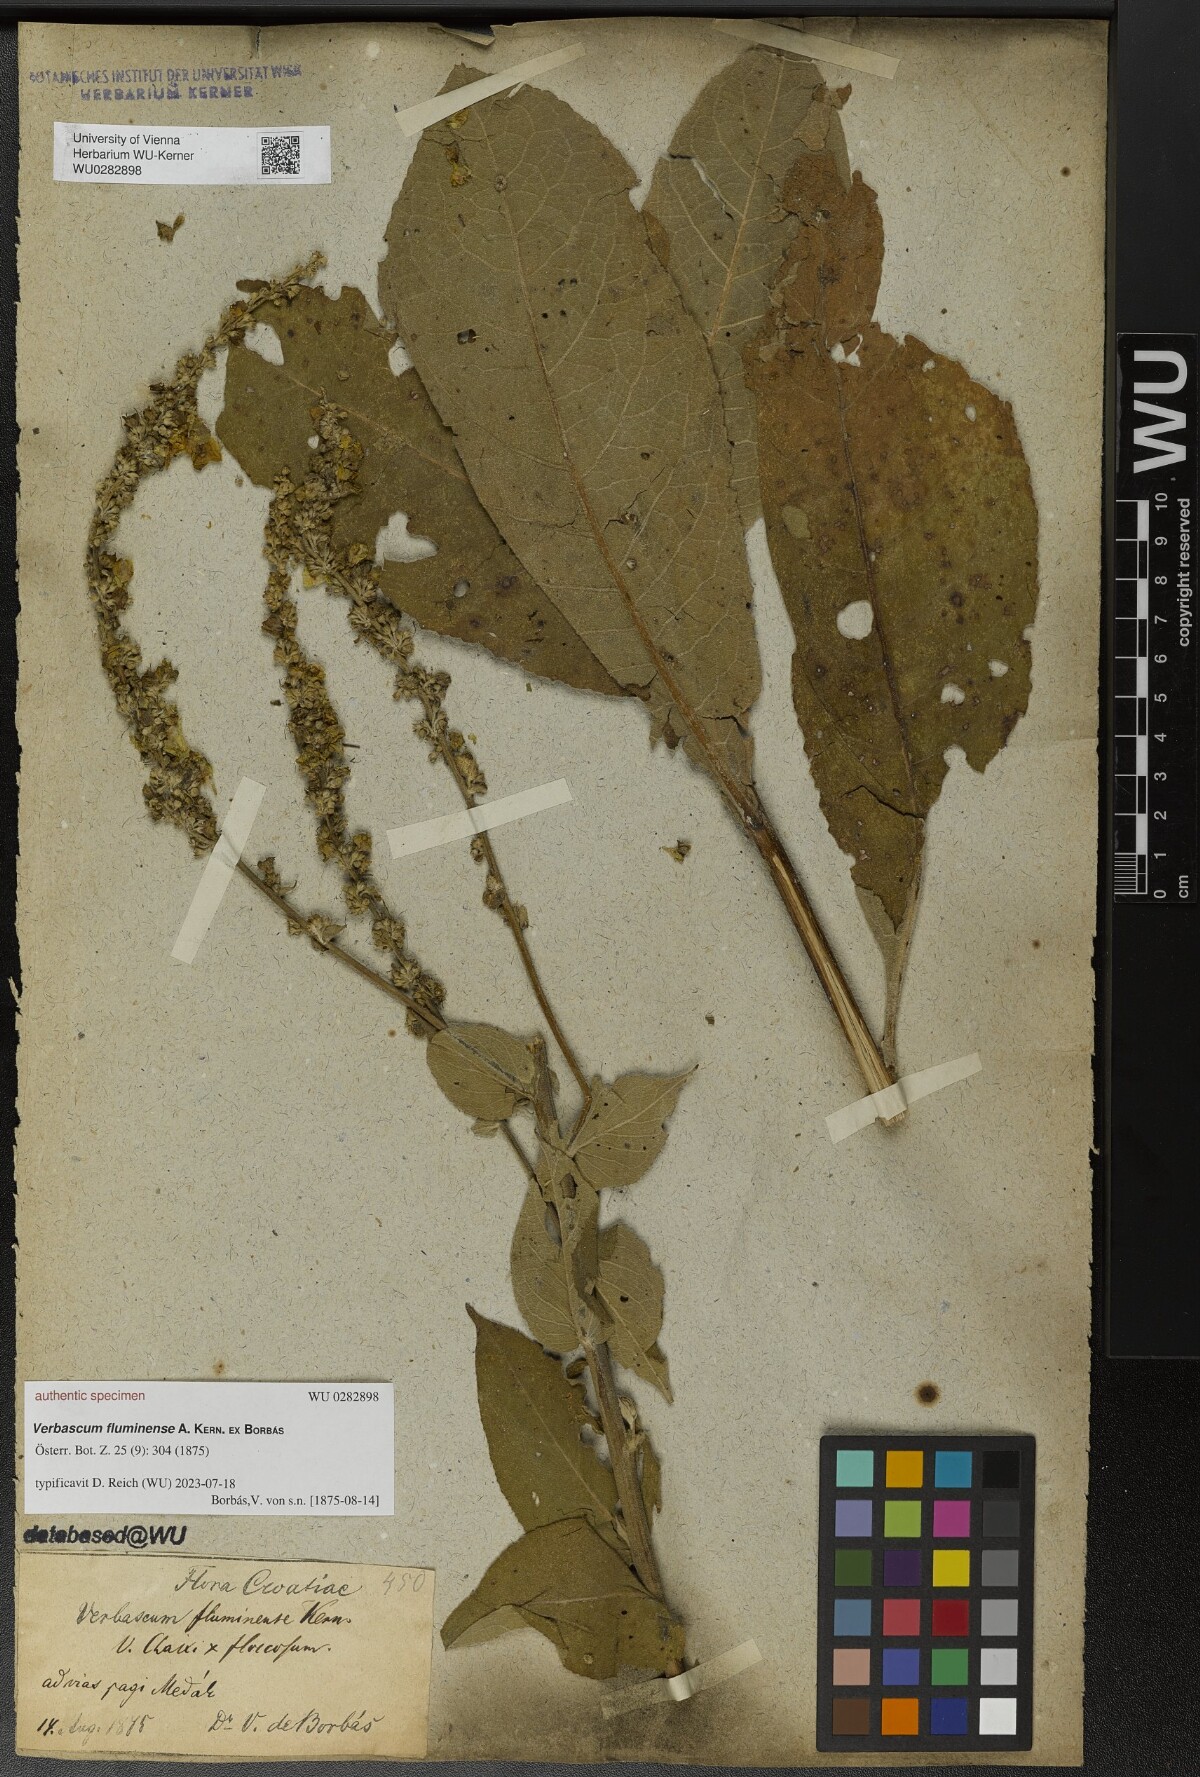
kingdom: Plantae
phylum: Tracheophyta
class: Magnoliopsida
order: Lamiales
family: Scrophulariaceae
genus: Verbascum
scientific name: Verbascum fluminense
